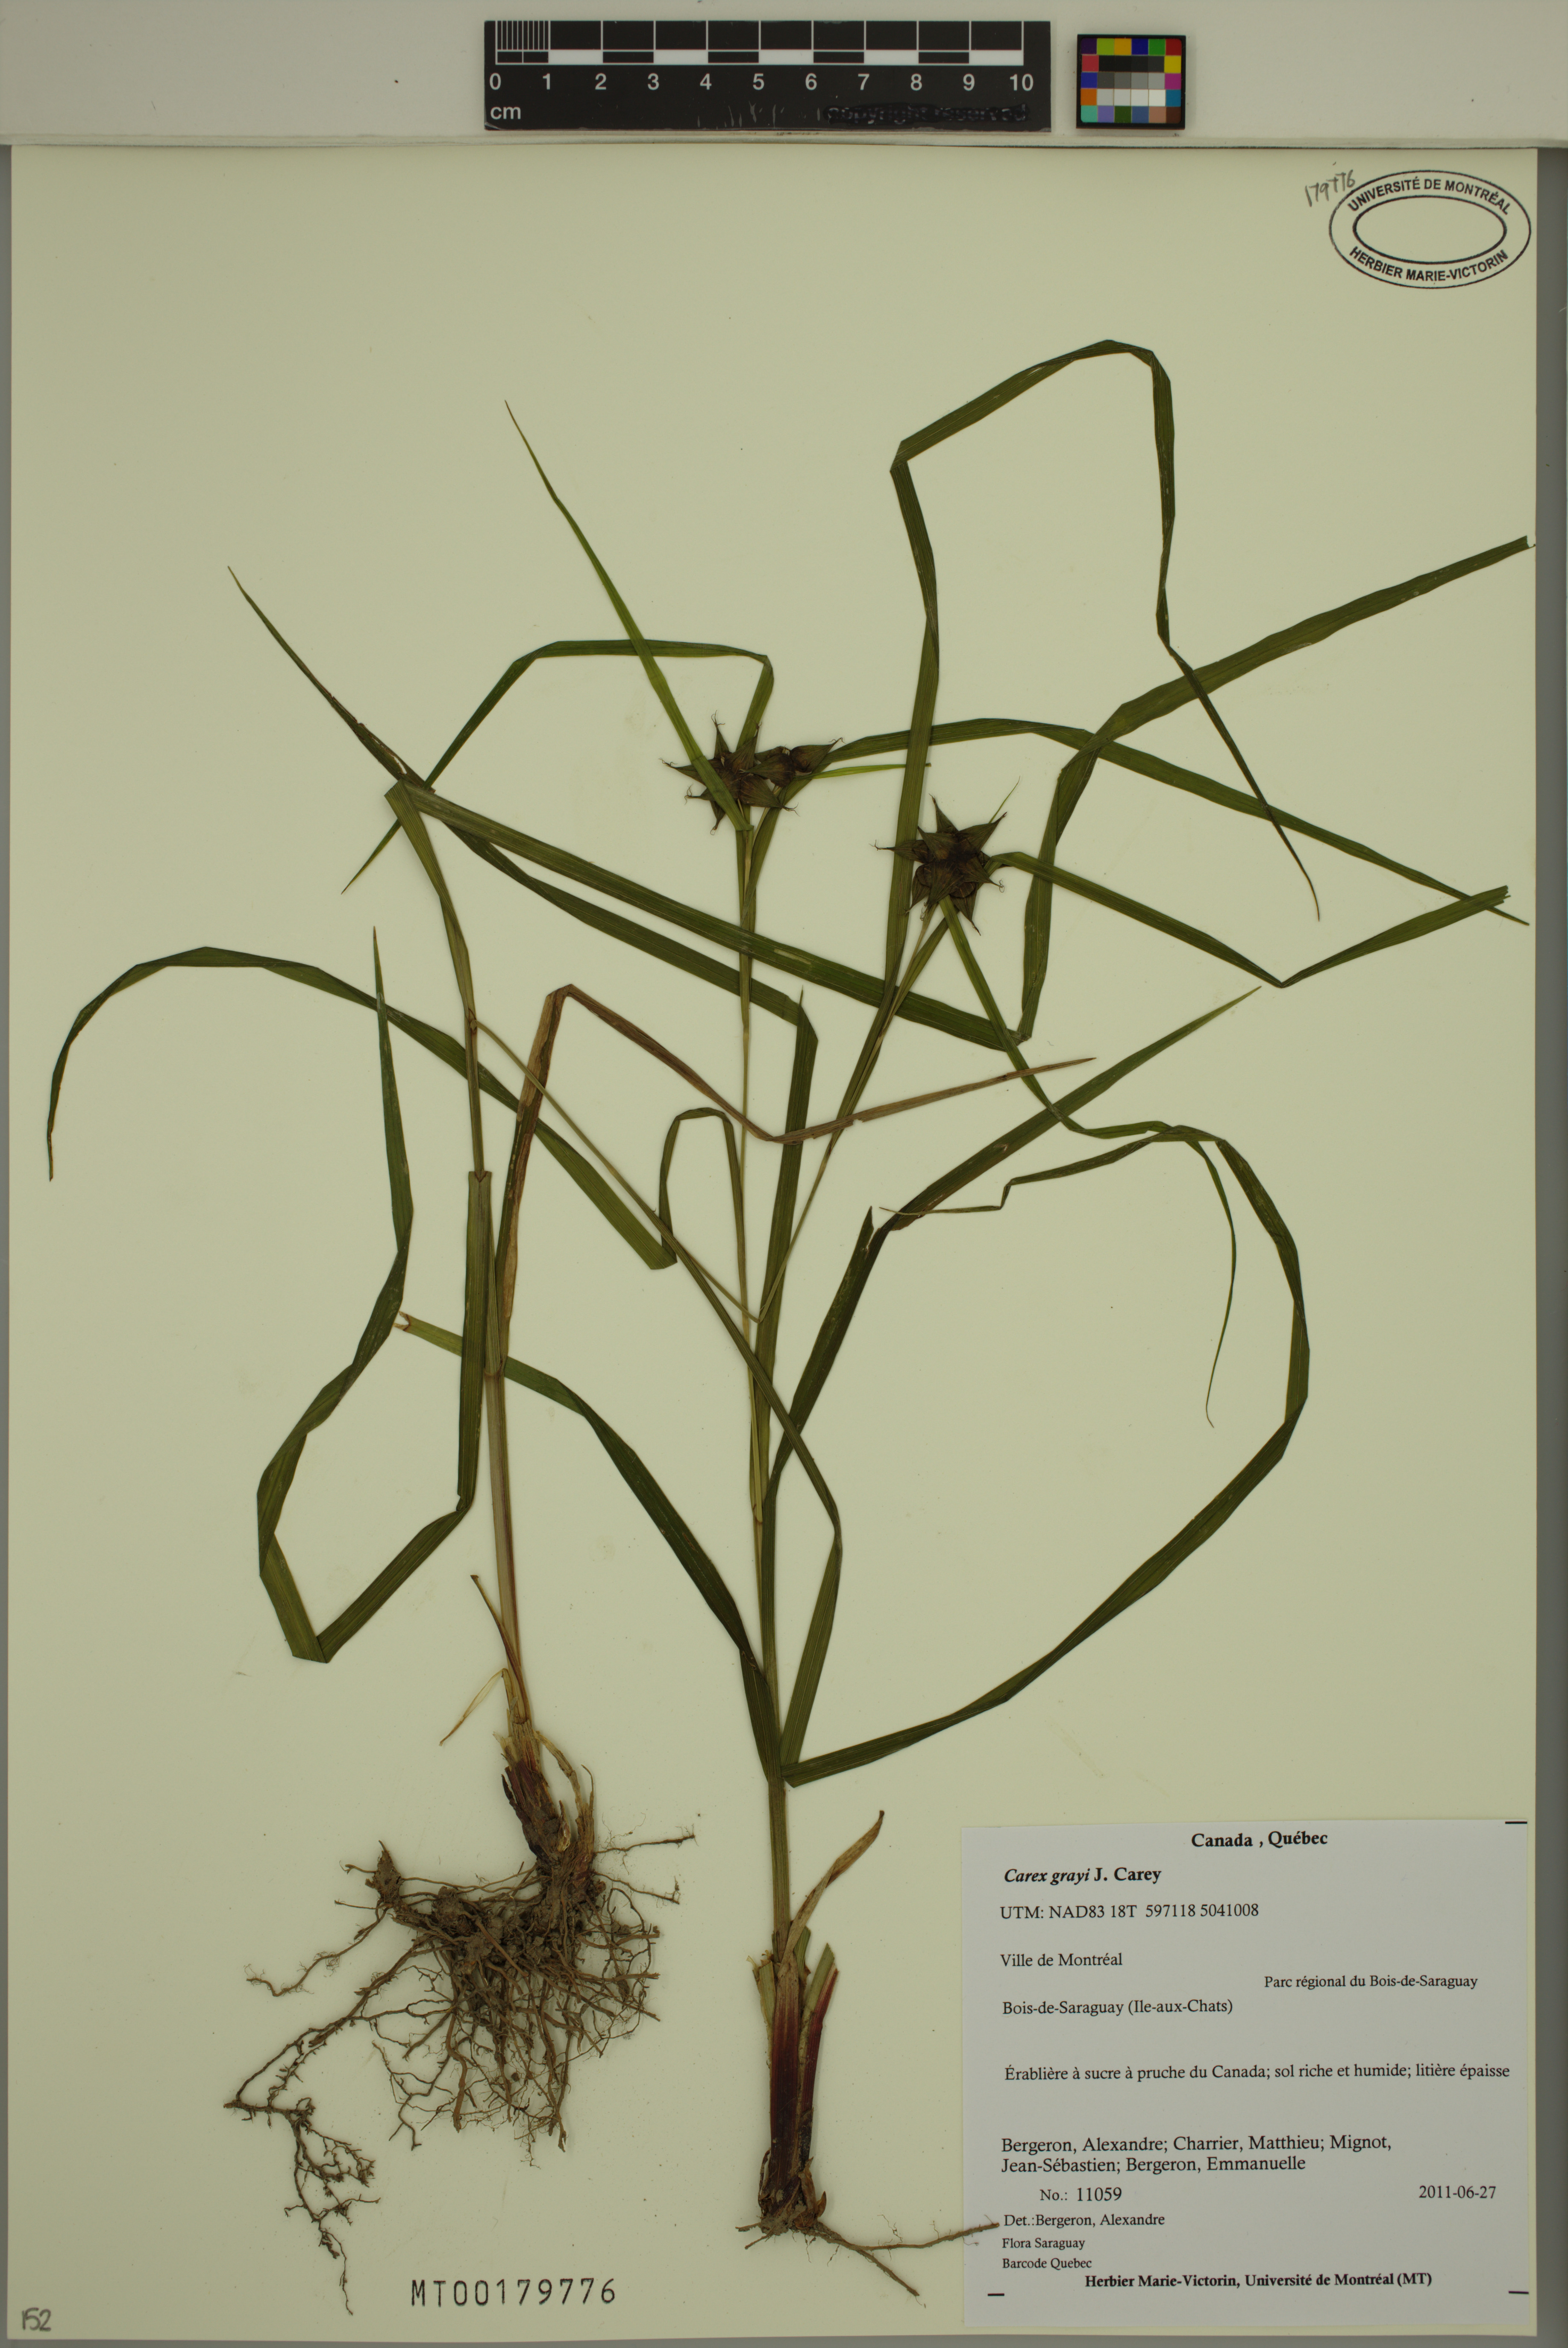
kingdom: Plantae
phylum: Tracheophyta
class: Liliopsida
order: Poales
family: Cyperaceae
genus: Carex
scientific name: Carex grayi
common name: Asa gray's sedge
